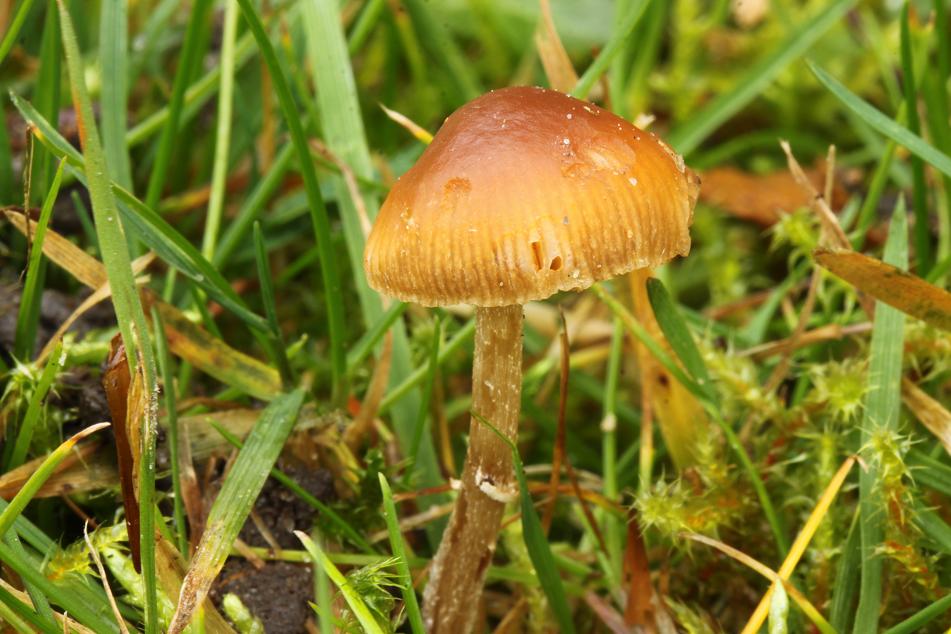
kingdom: Fungi
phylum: Basidiomycota
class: Agaricomycetes
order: Agaricales
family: Bolbitiaceae
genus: Conocybe
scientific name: Conocybe arrhenii
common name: ring-dansehat
